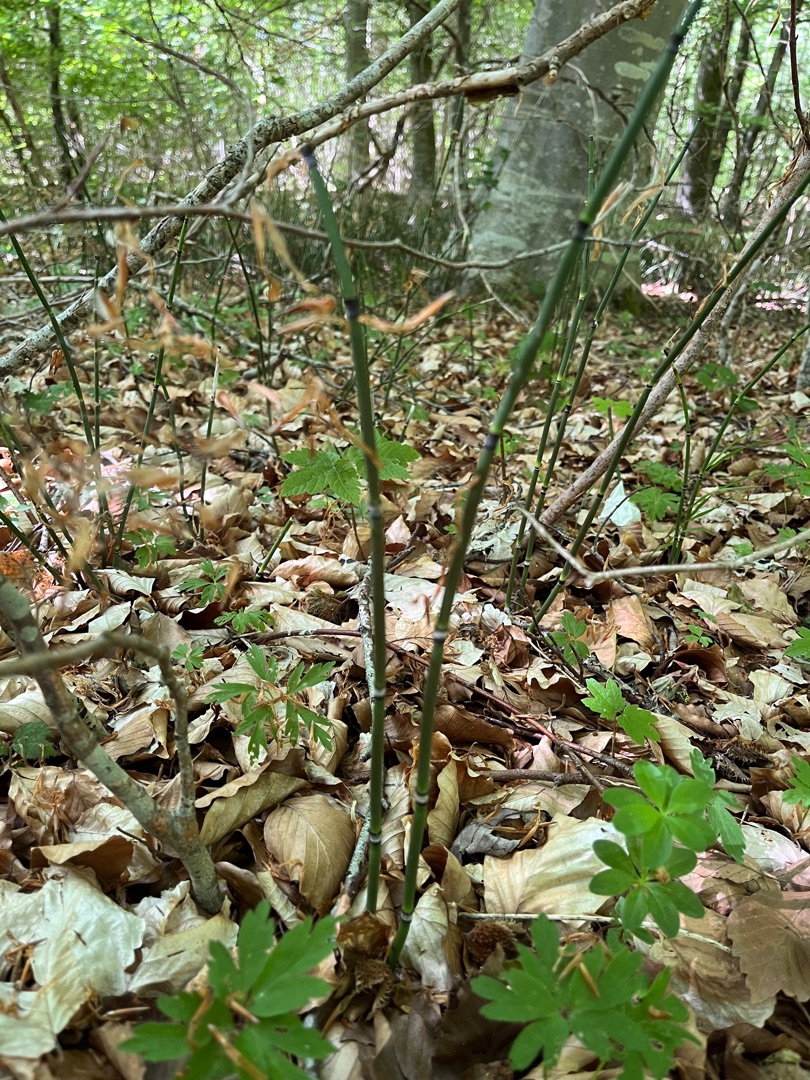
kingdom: Plantae
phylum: Tracheophyta
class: Polypodiopsida
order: Equisetales
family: Equisetaceae
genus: Equisetum
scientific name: Equisetum hyemale
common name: Skavgræs
